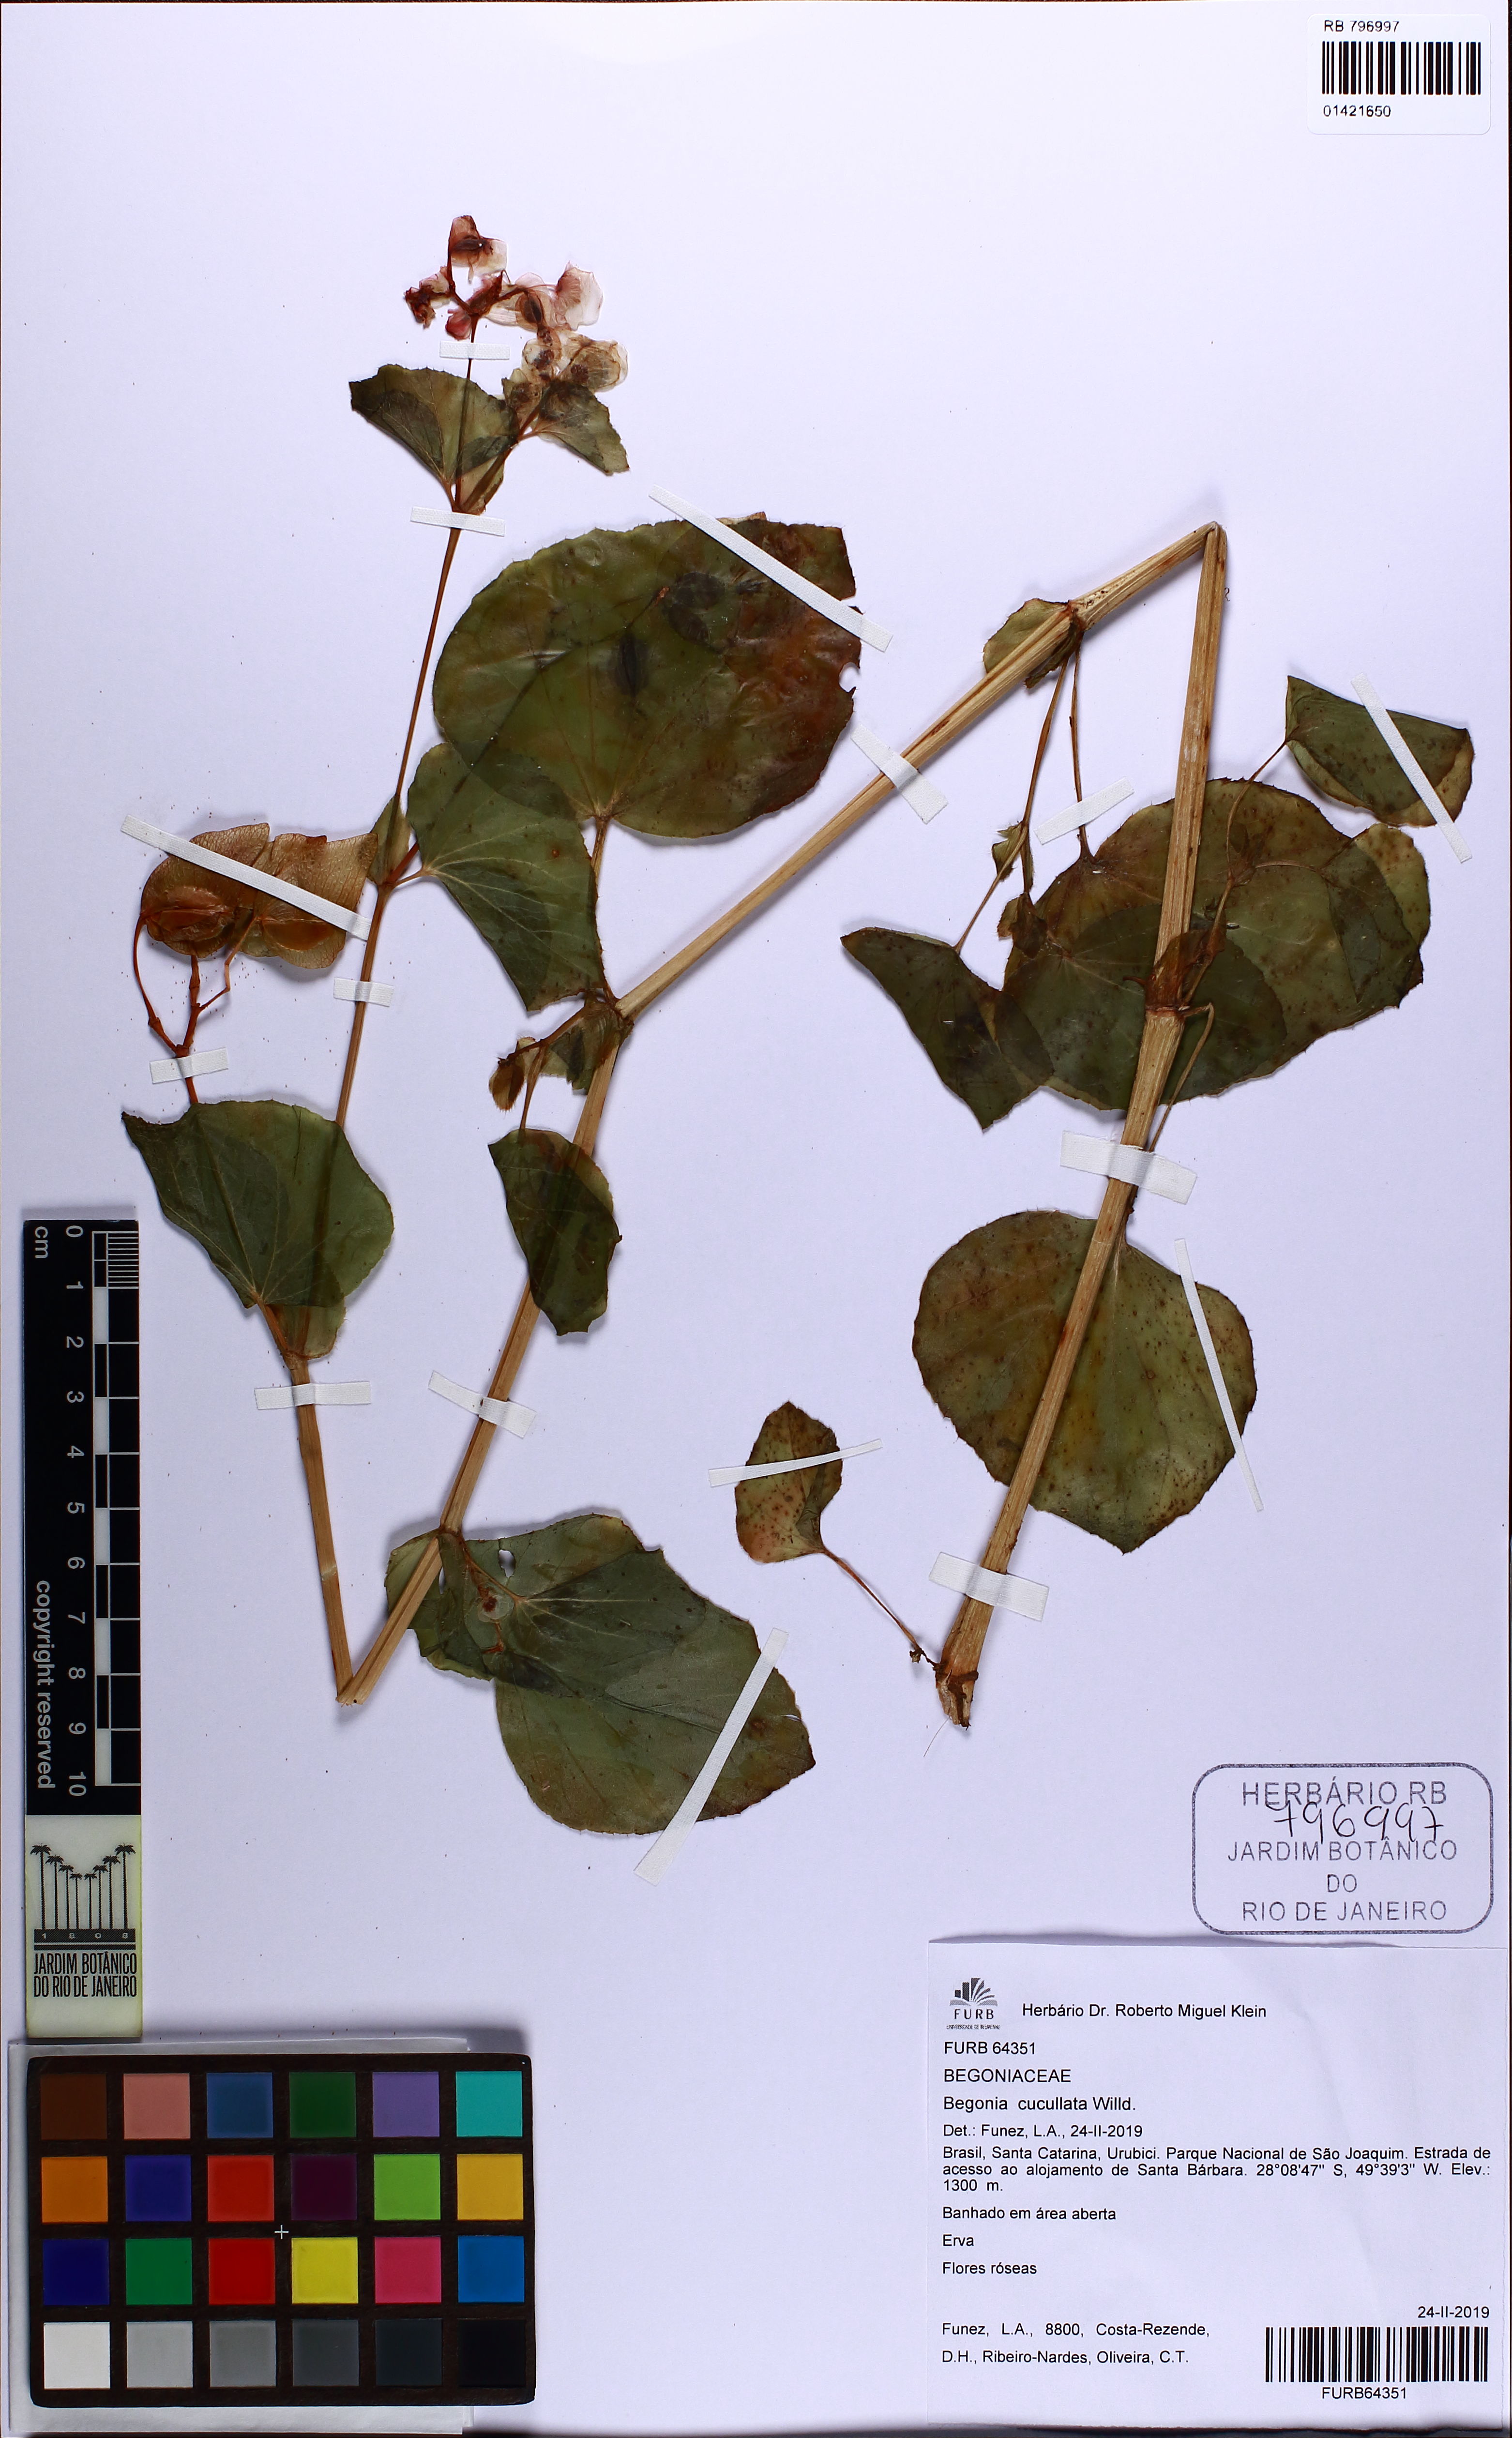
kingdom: Plantae
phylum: Tracheophyta
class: Magnoliopsida
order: Cucurbitales
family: Begoniaceae
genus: Begonia
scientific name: Begonia cucullata
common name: Clubbed begonia
